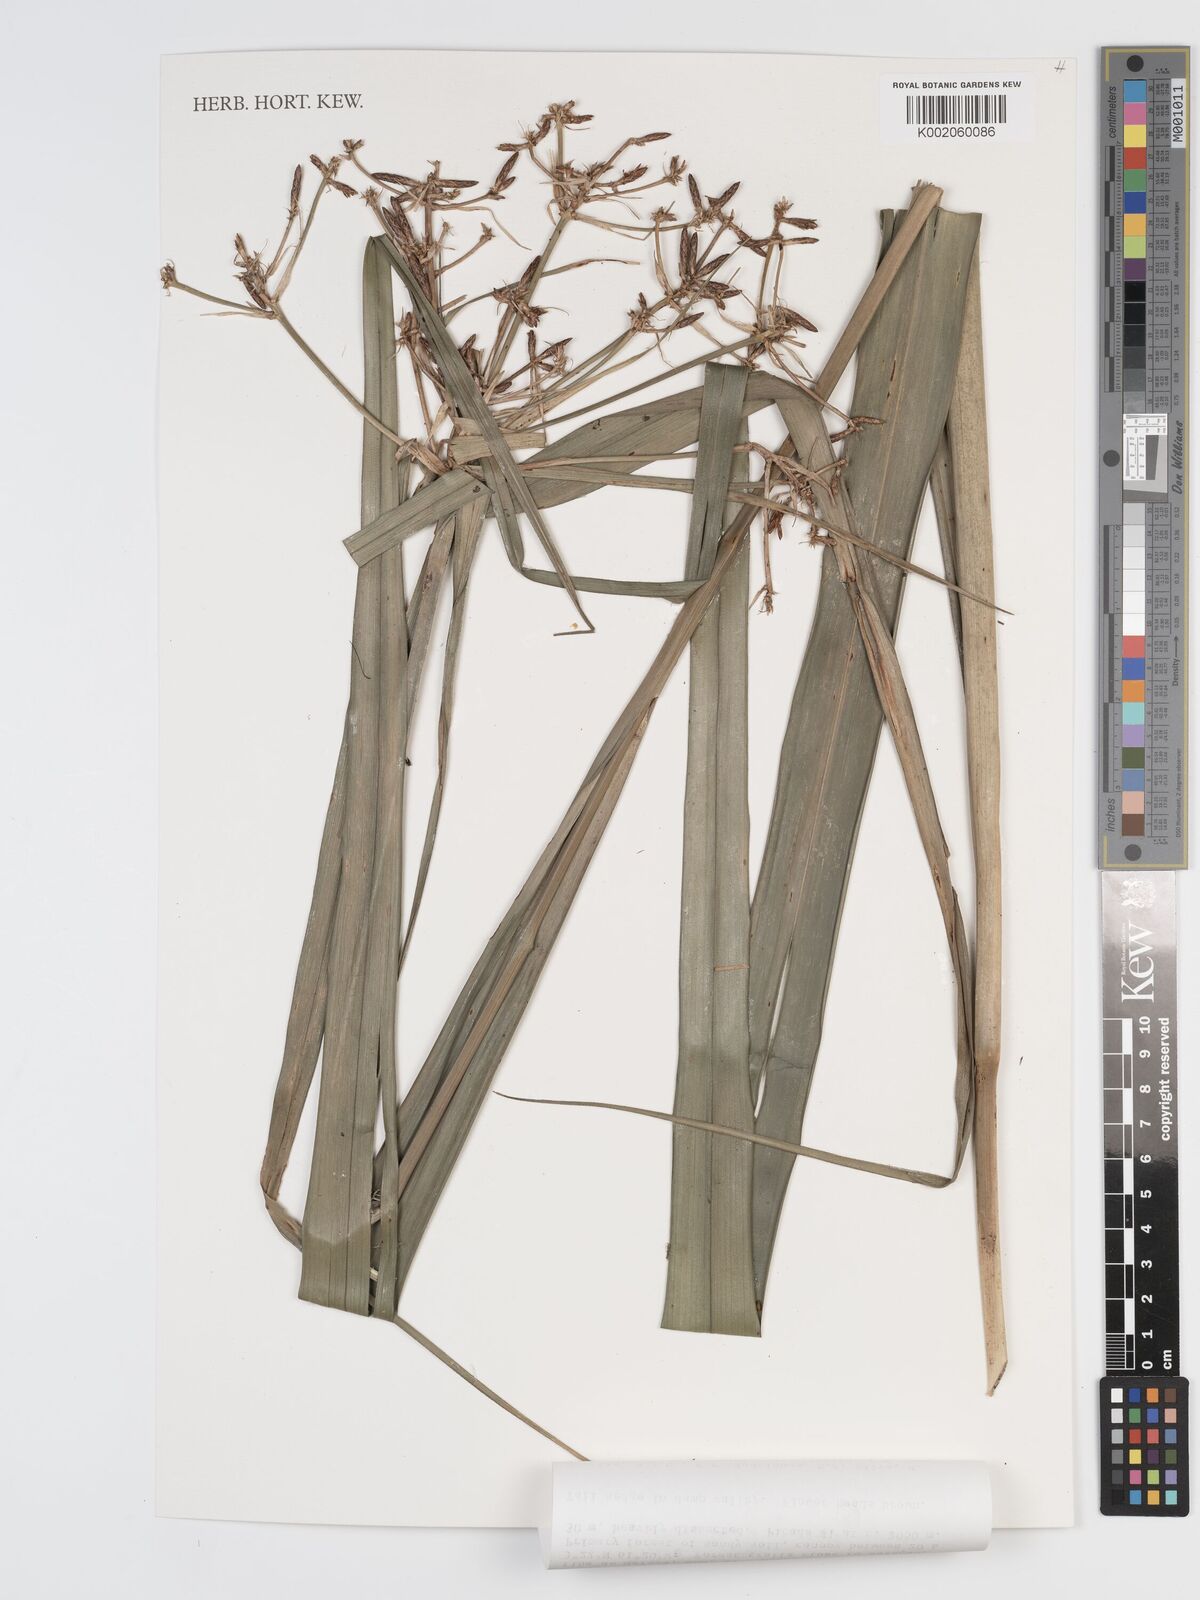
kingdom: Plantae
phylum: Tracheophyta
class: Liliopsida
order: Poales
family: Cyperaceae
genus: Diplasia
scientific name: Diplasia karatifolia
